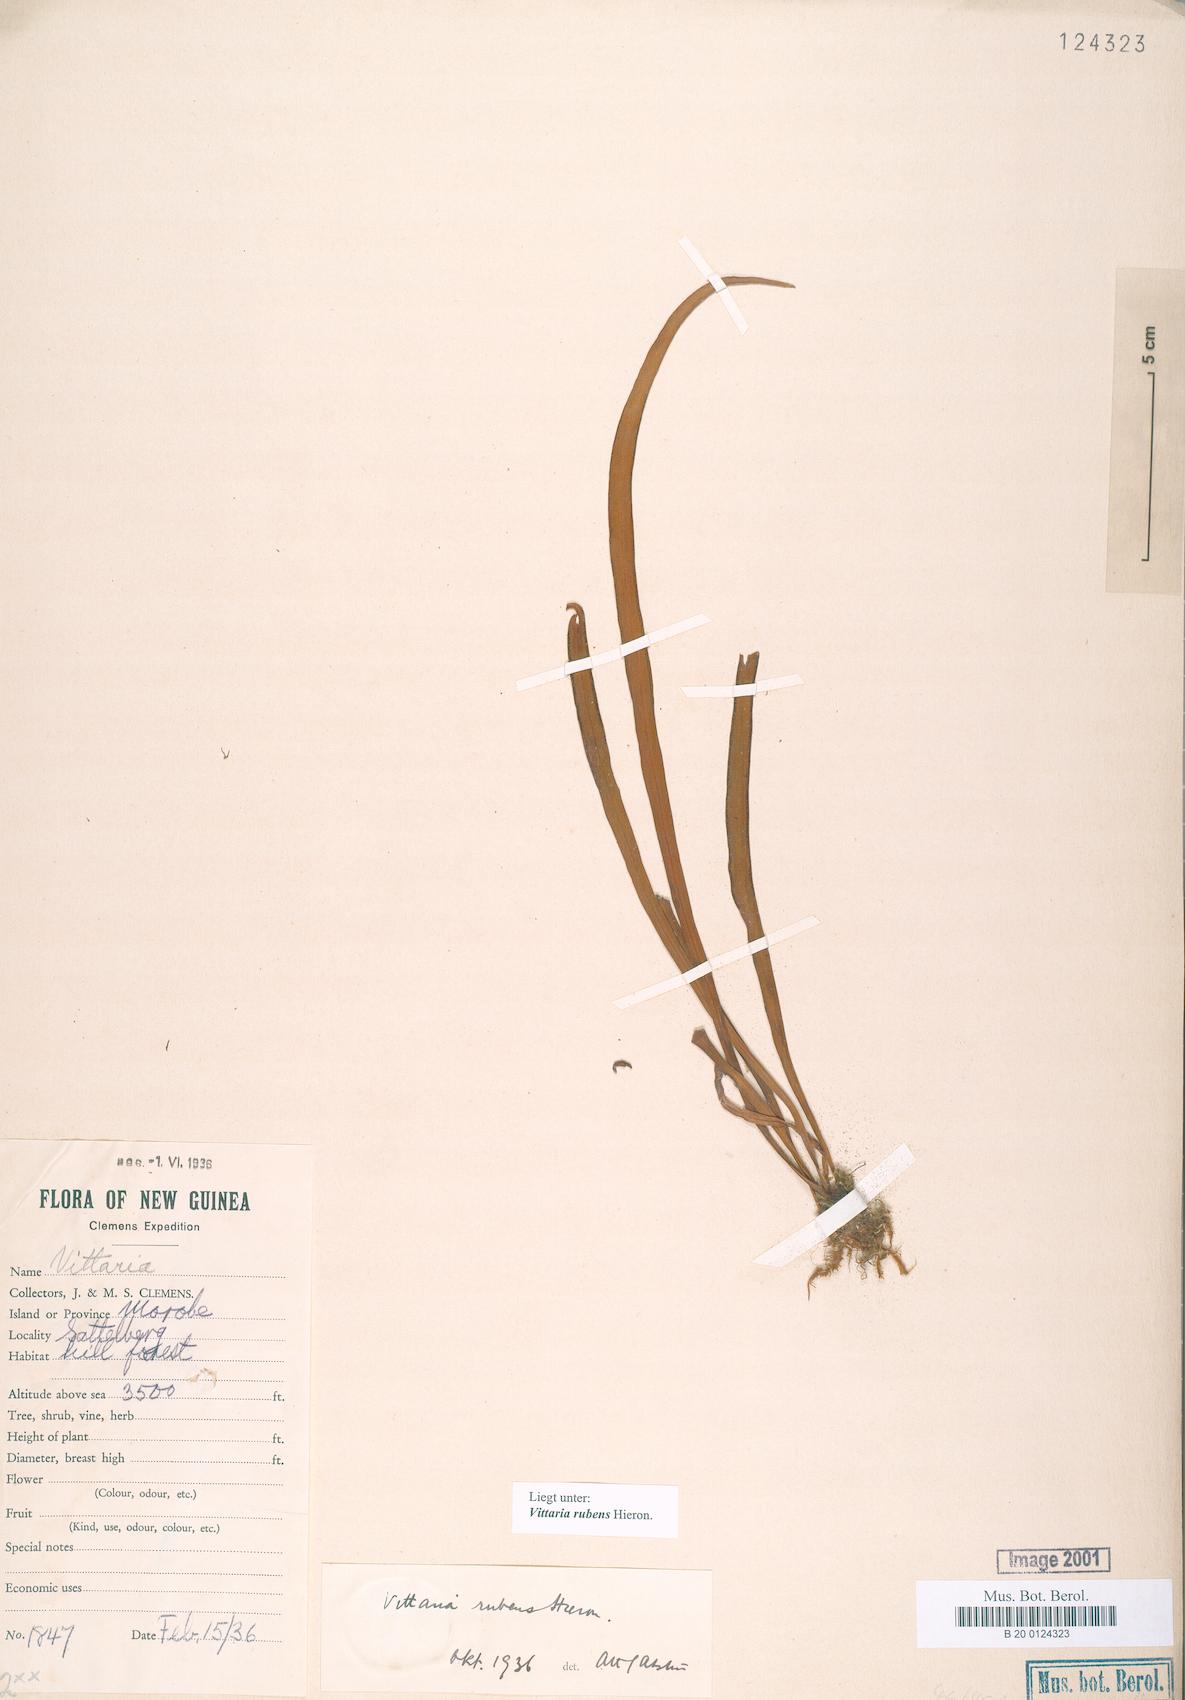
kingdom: Plantae
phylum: Tracheophyta
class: Polypodiopsida
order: Polypodiales
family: Pteridaceae
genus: Haplopteris
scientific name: Haplopteris elongata
